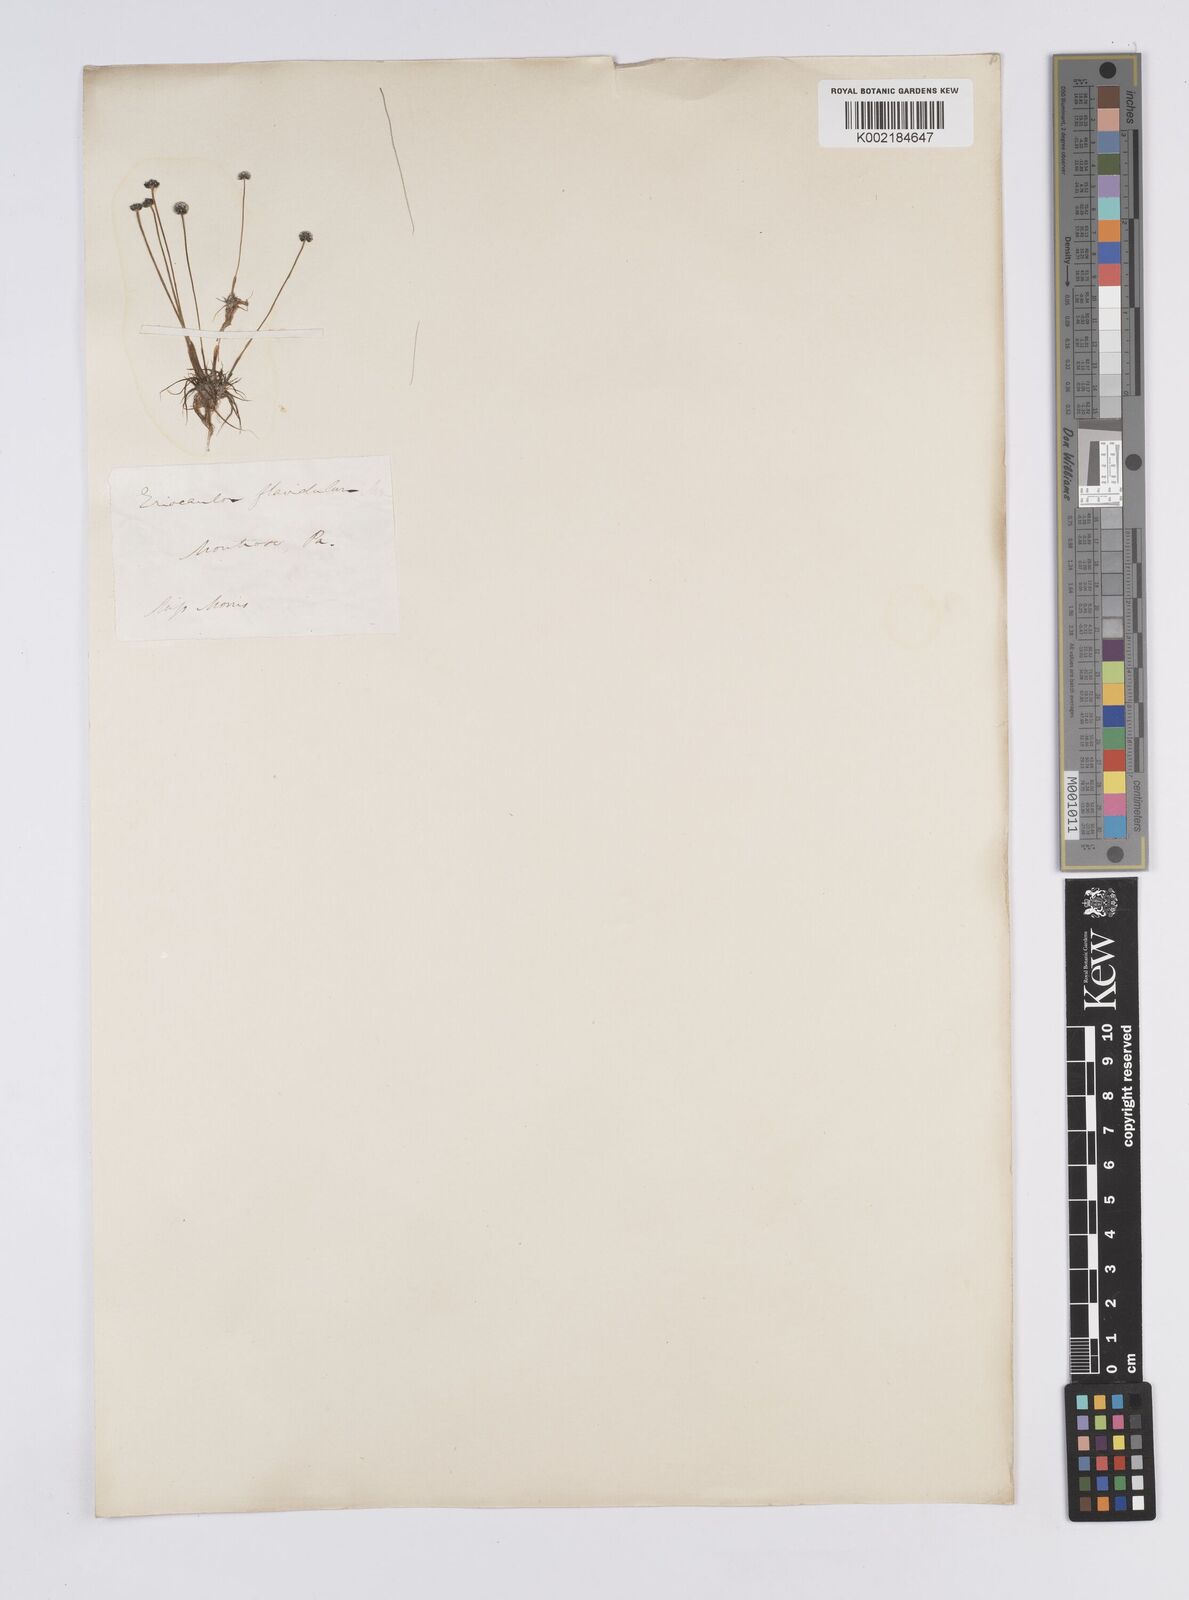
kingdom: Plantae
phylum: Tracheophyta
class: Liliopsida
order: Poales
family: Eriocaulaceae
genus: Syngonanthus
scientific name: Syngonanthus flavidulus
